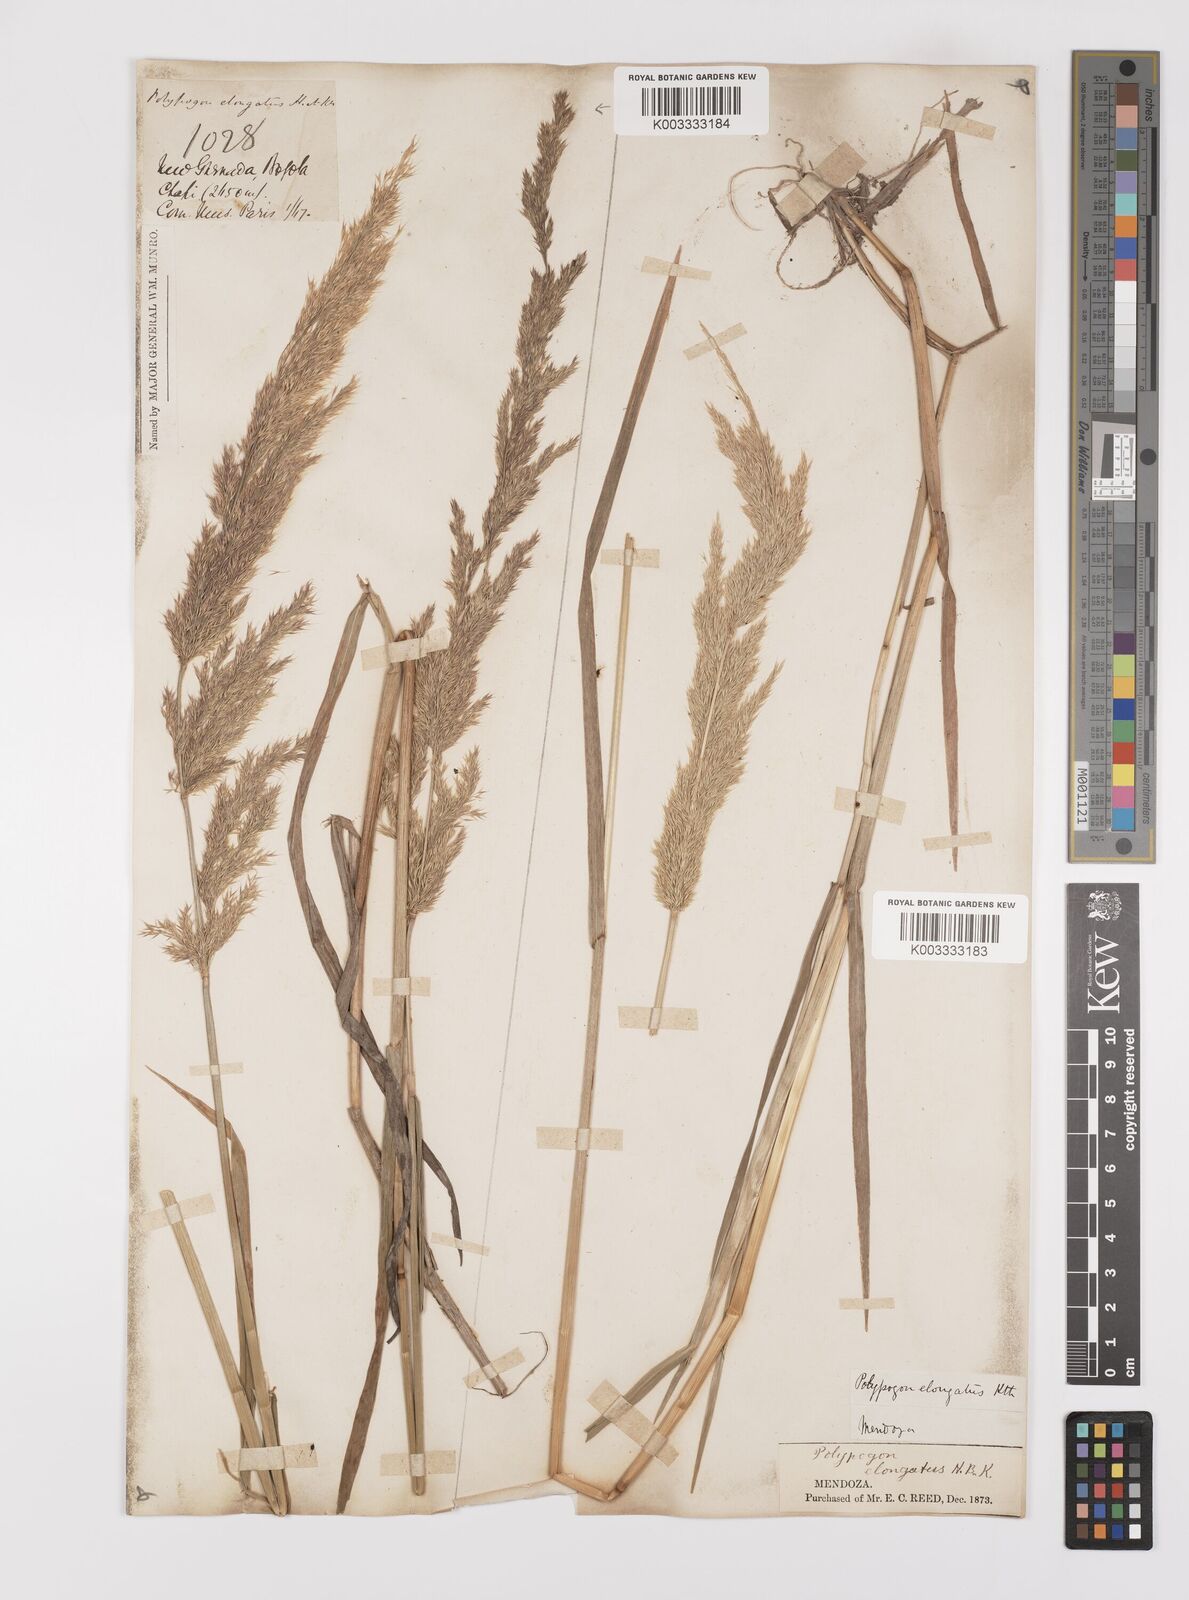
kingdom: Plantae
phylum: Tracheophyta
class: Liliopsida
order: Poales
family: Poaceae
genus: Polypogon
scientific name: Polypogon elongatus
